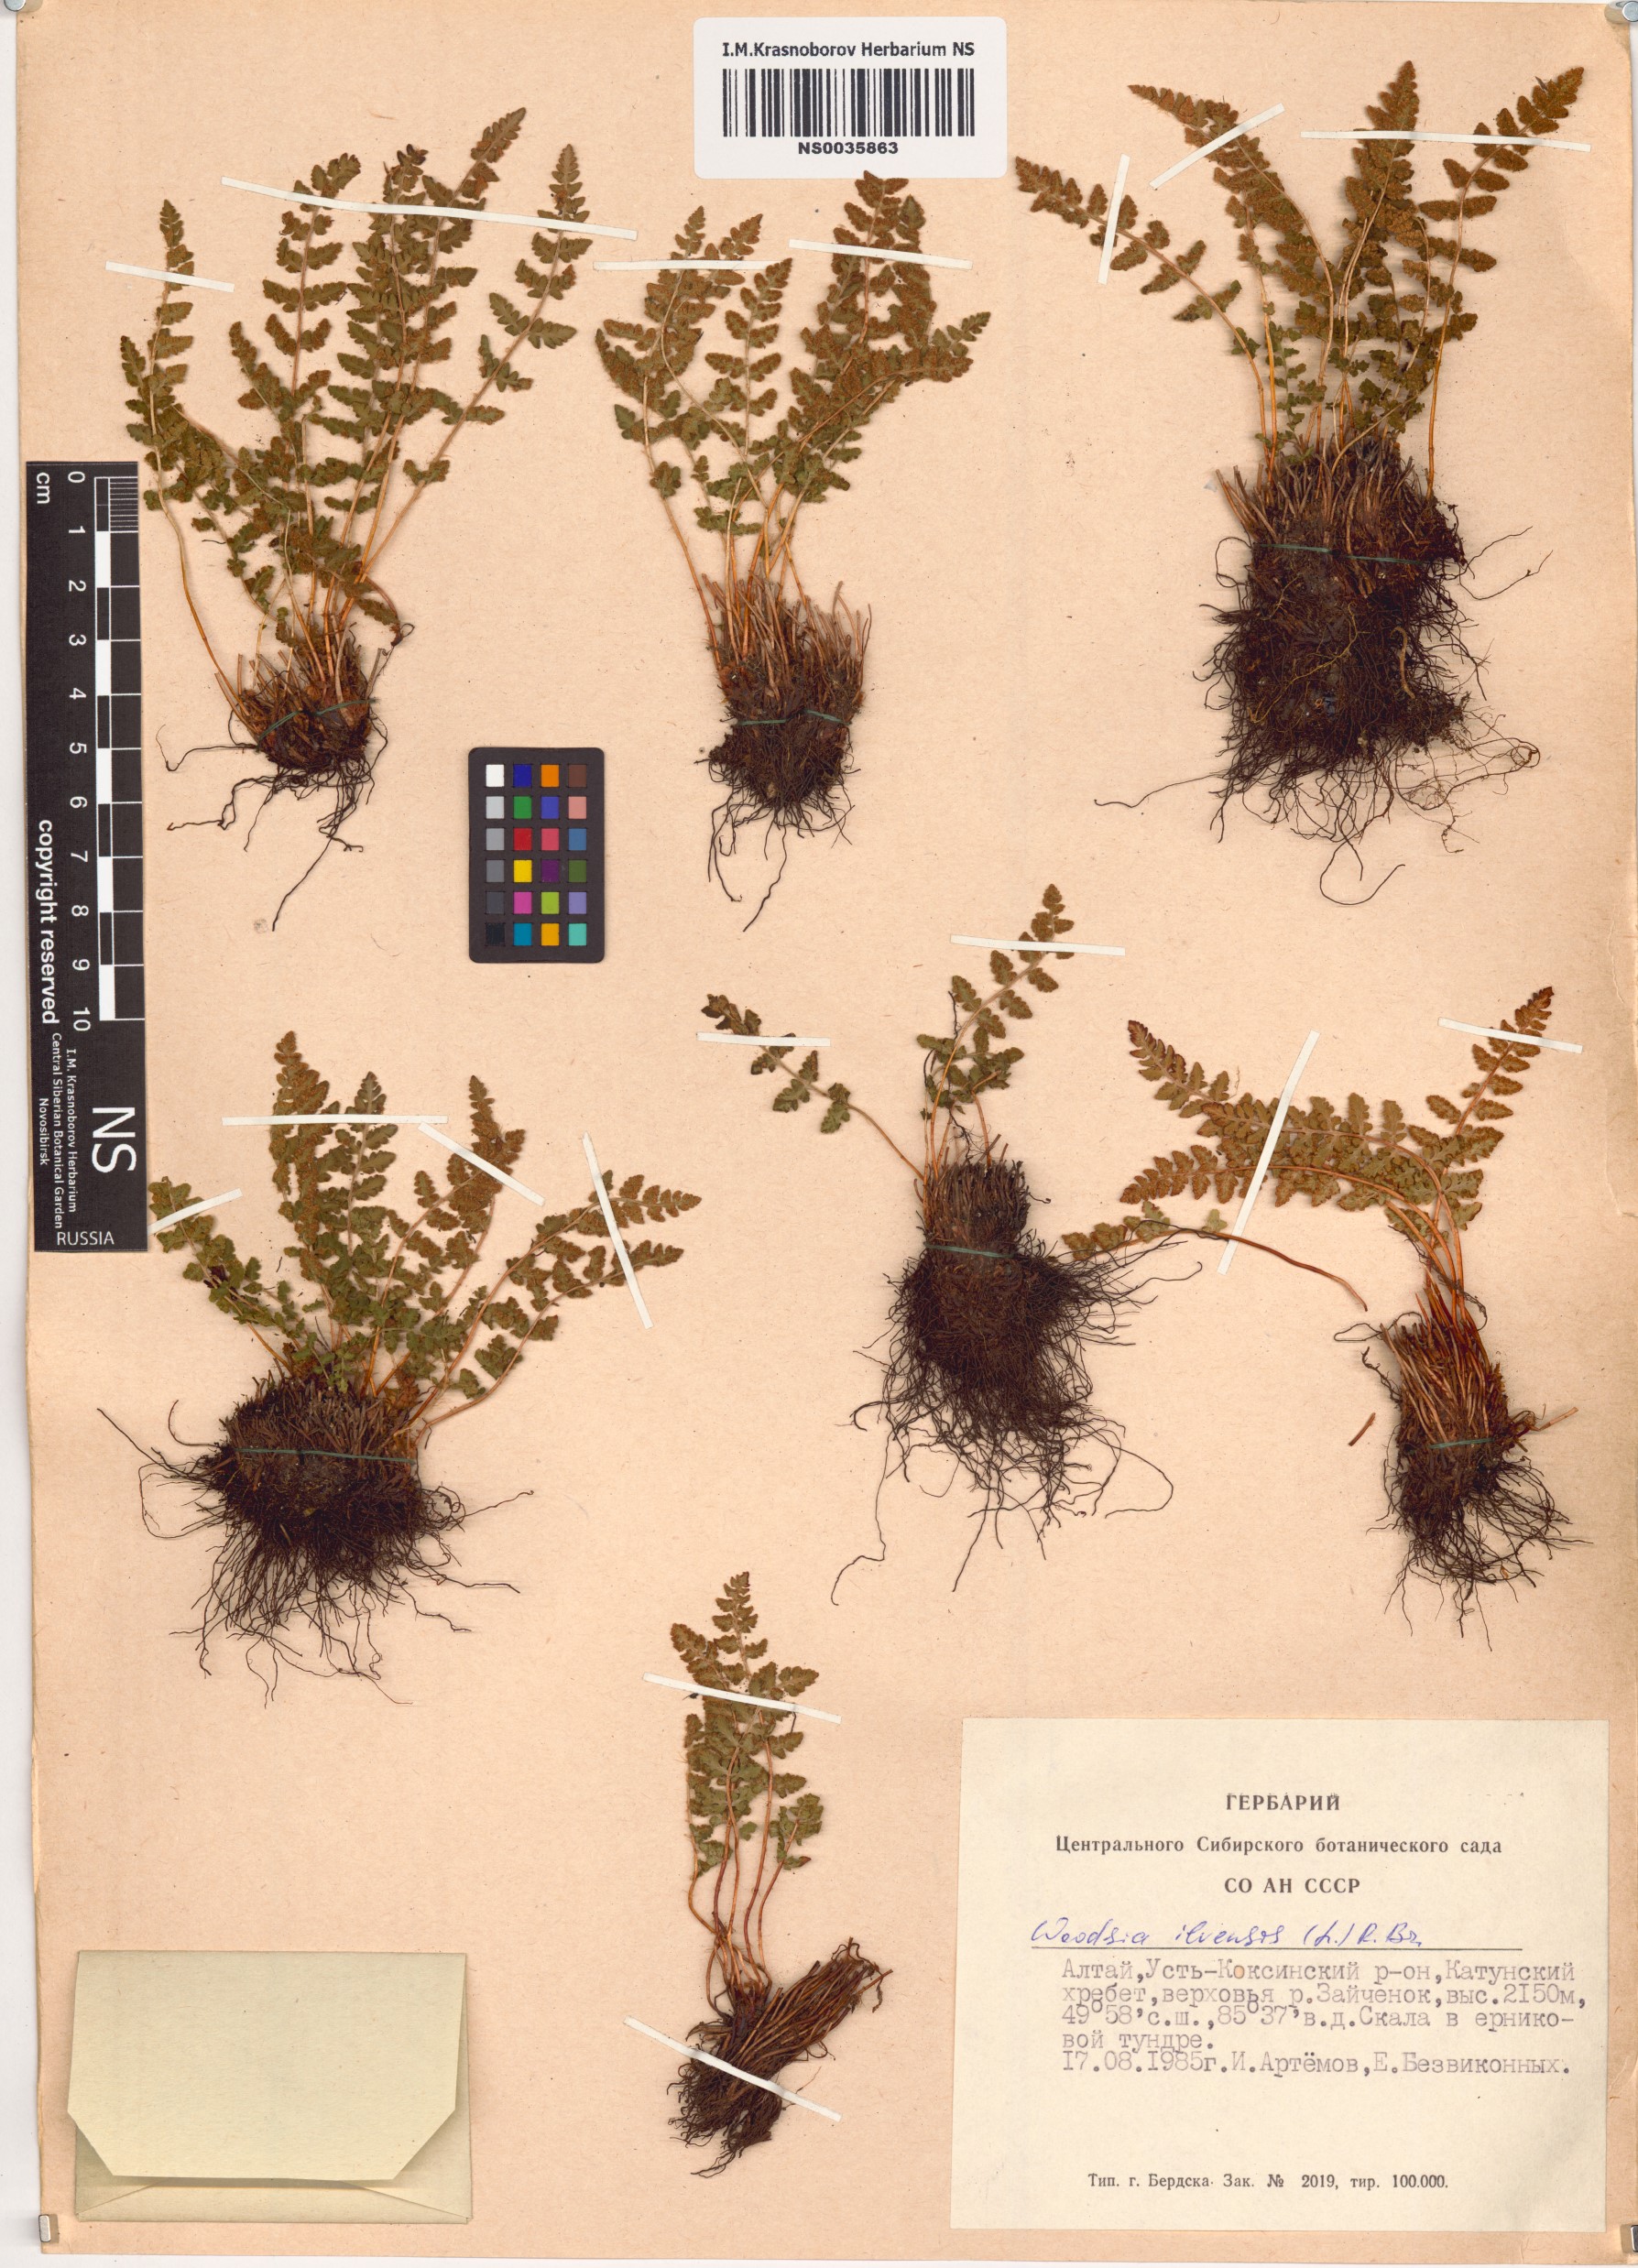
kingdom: Plantae
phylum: Tracheophyta
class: Polypodiopsida
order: Polypodiales
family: Woodsiaceae
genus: Woodsia
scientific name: Woodsia ilvensis
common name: Fragrant woodsia
